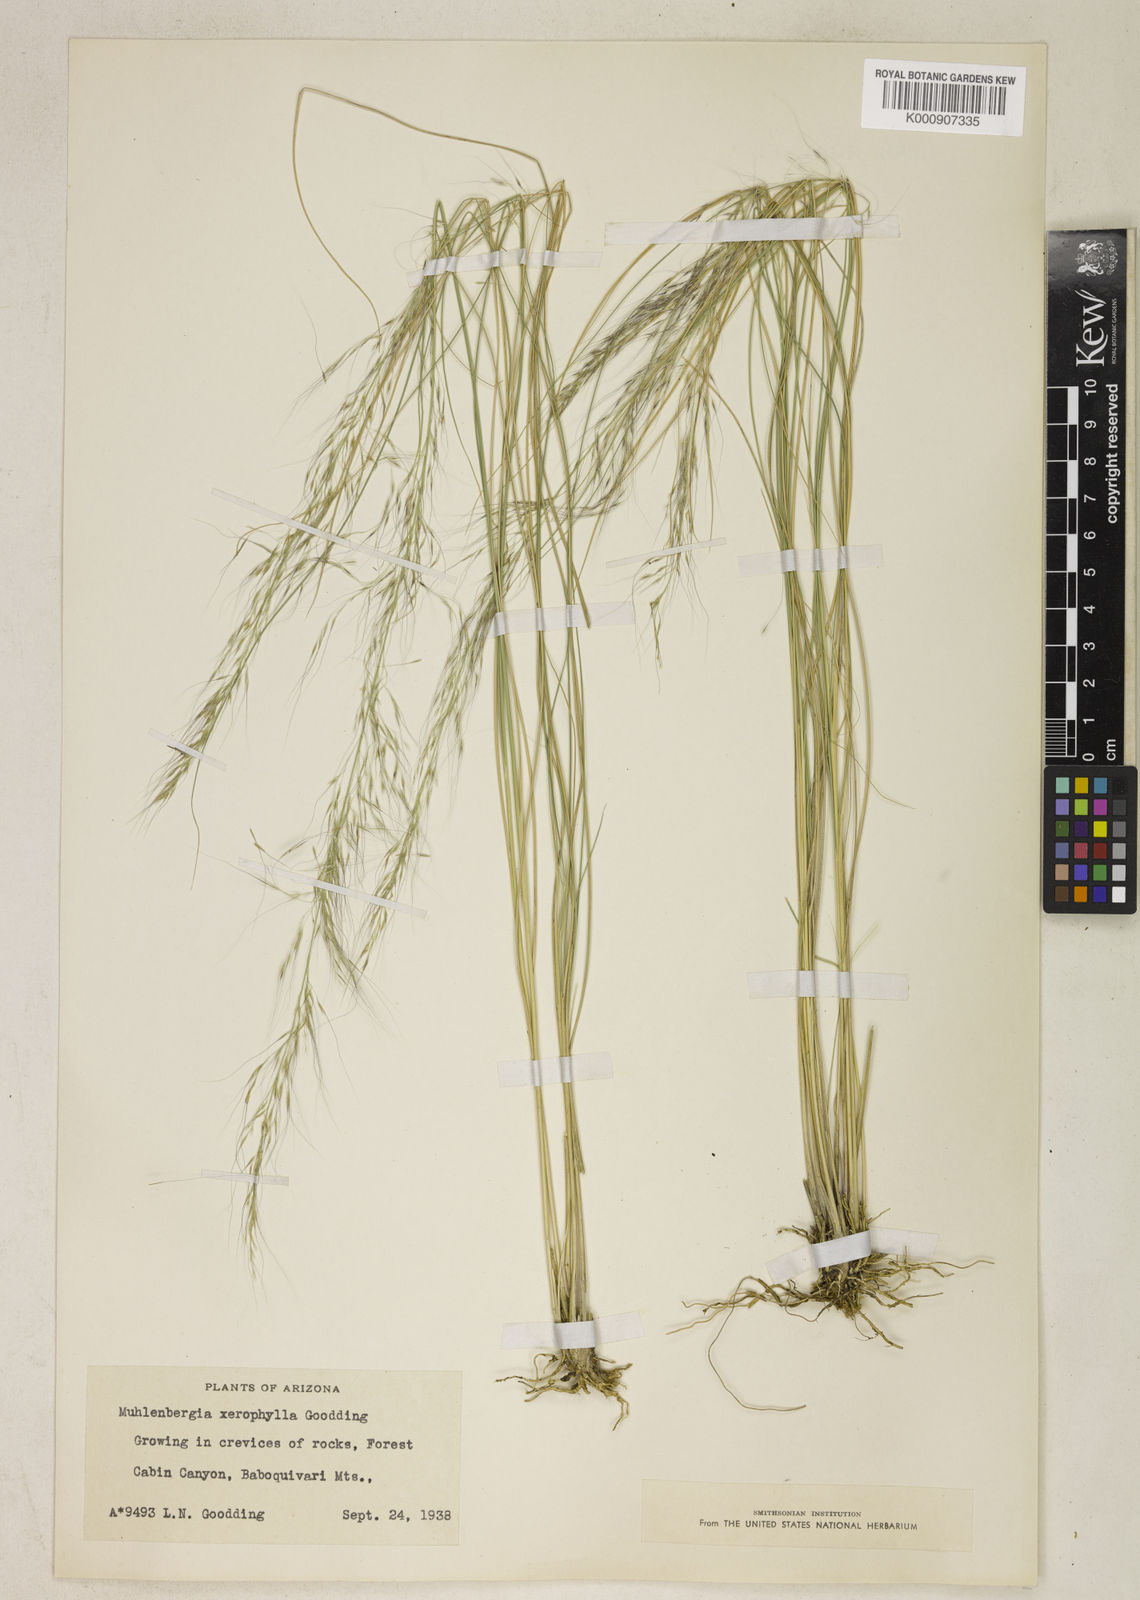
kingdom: Plantae
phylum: Tracheophyta
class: Liliopsida
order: Poales
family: Poaceae
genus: Muhlenbergia
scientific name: Muhlenbergia elongata
